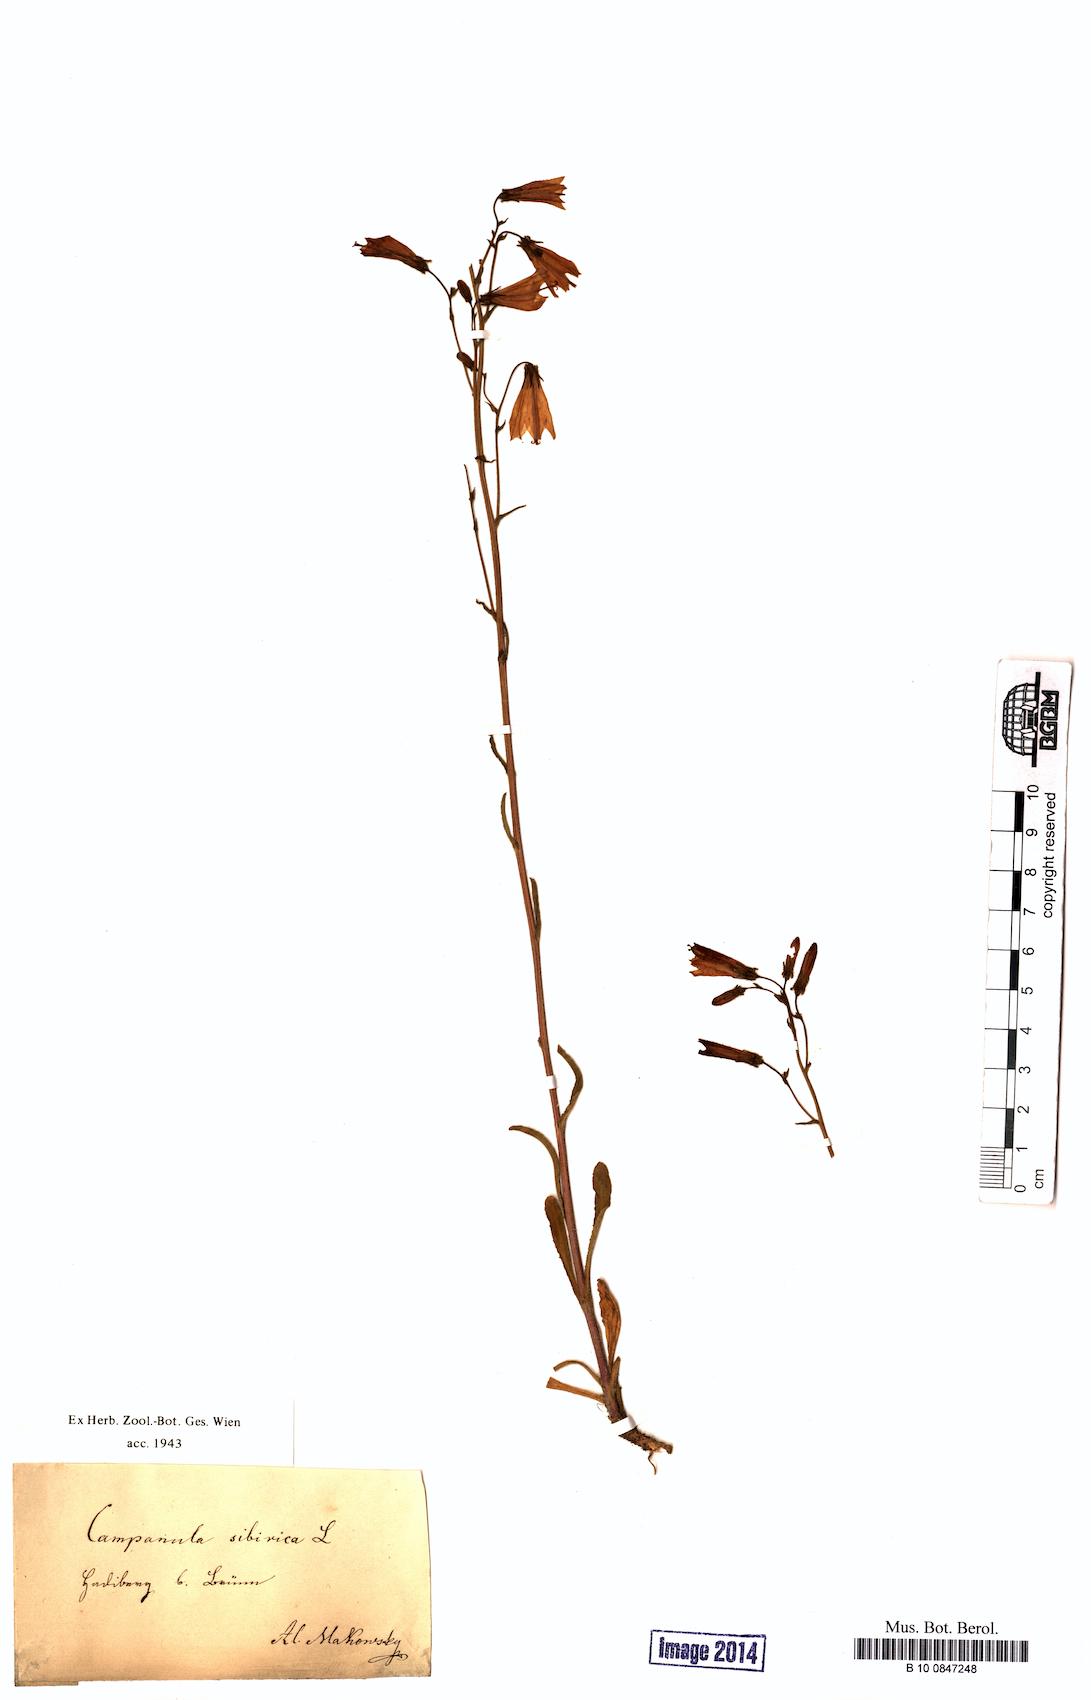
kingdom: Plantae
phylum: Tracheophyta
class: Magnoliopsida
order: Asterales
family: Campanulaceae
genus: Campanula
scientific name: Campanula sibirica
